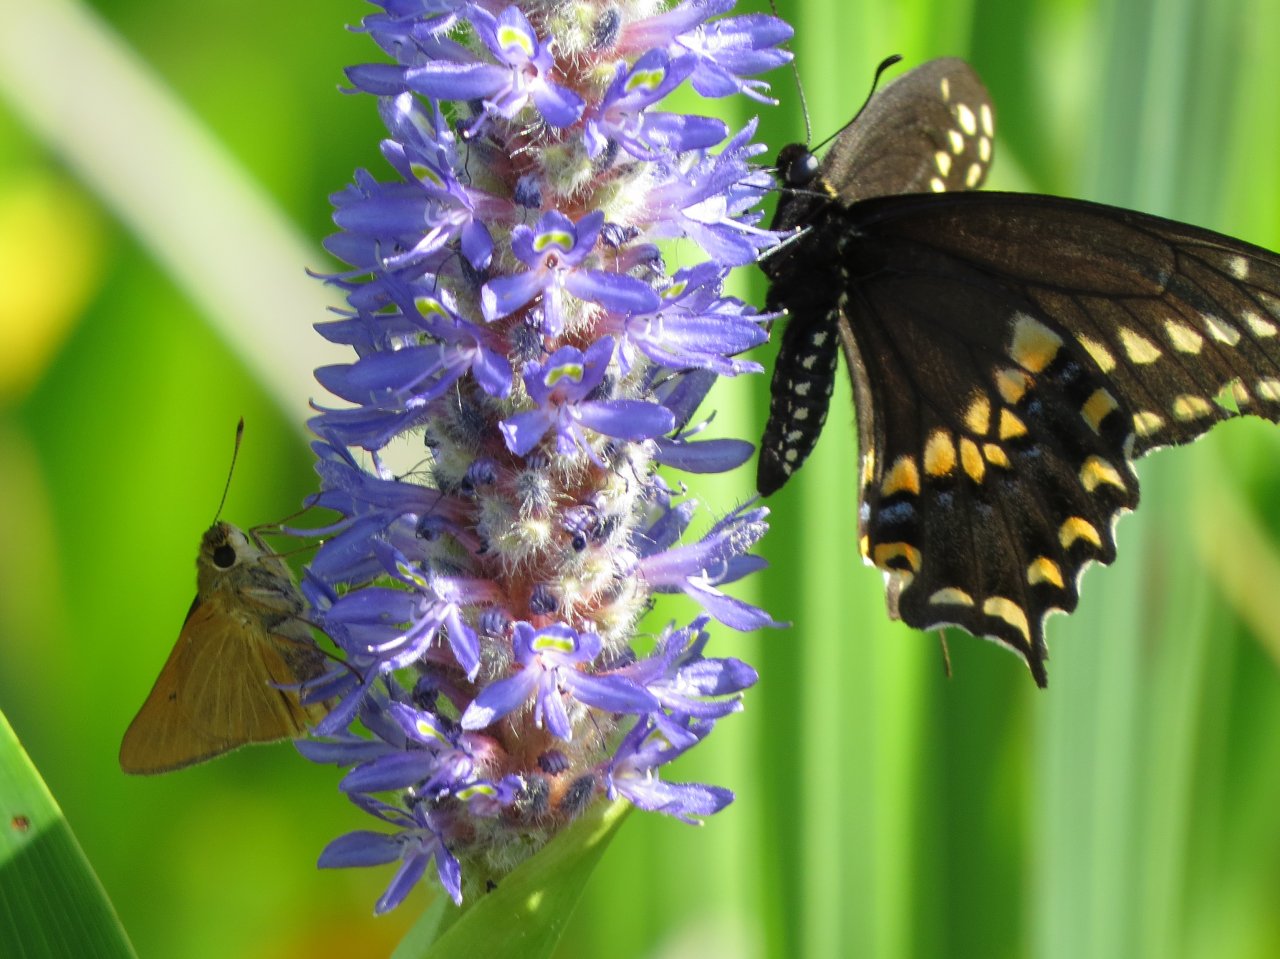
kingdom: Animalia
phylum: Arthropoda
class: Insecta
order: Lepidoptera
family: Papilionidae
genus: Papilio
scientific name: Papilio polyxenes
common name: Black Swallowtail
